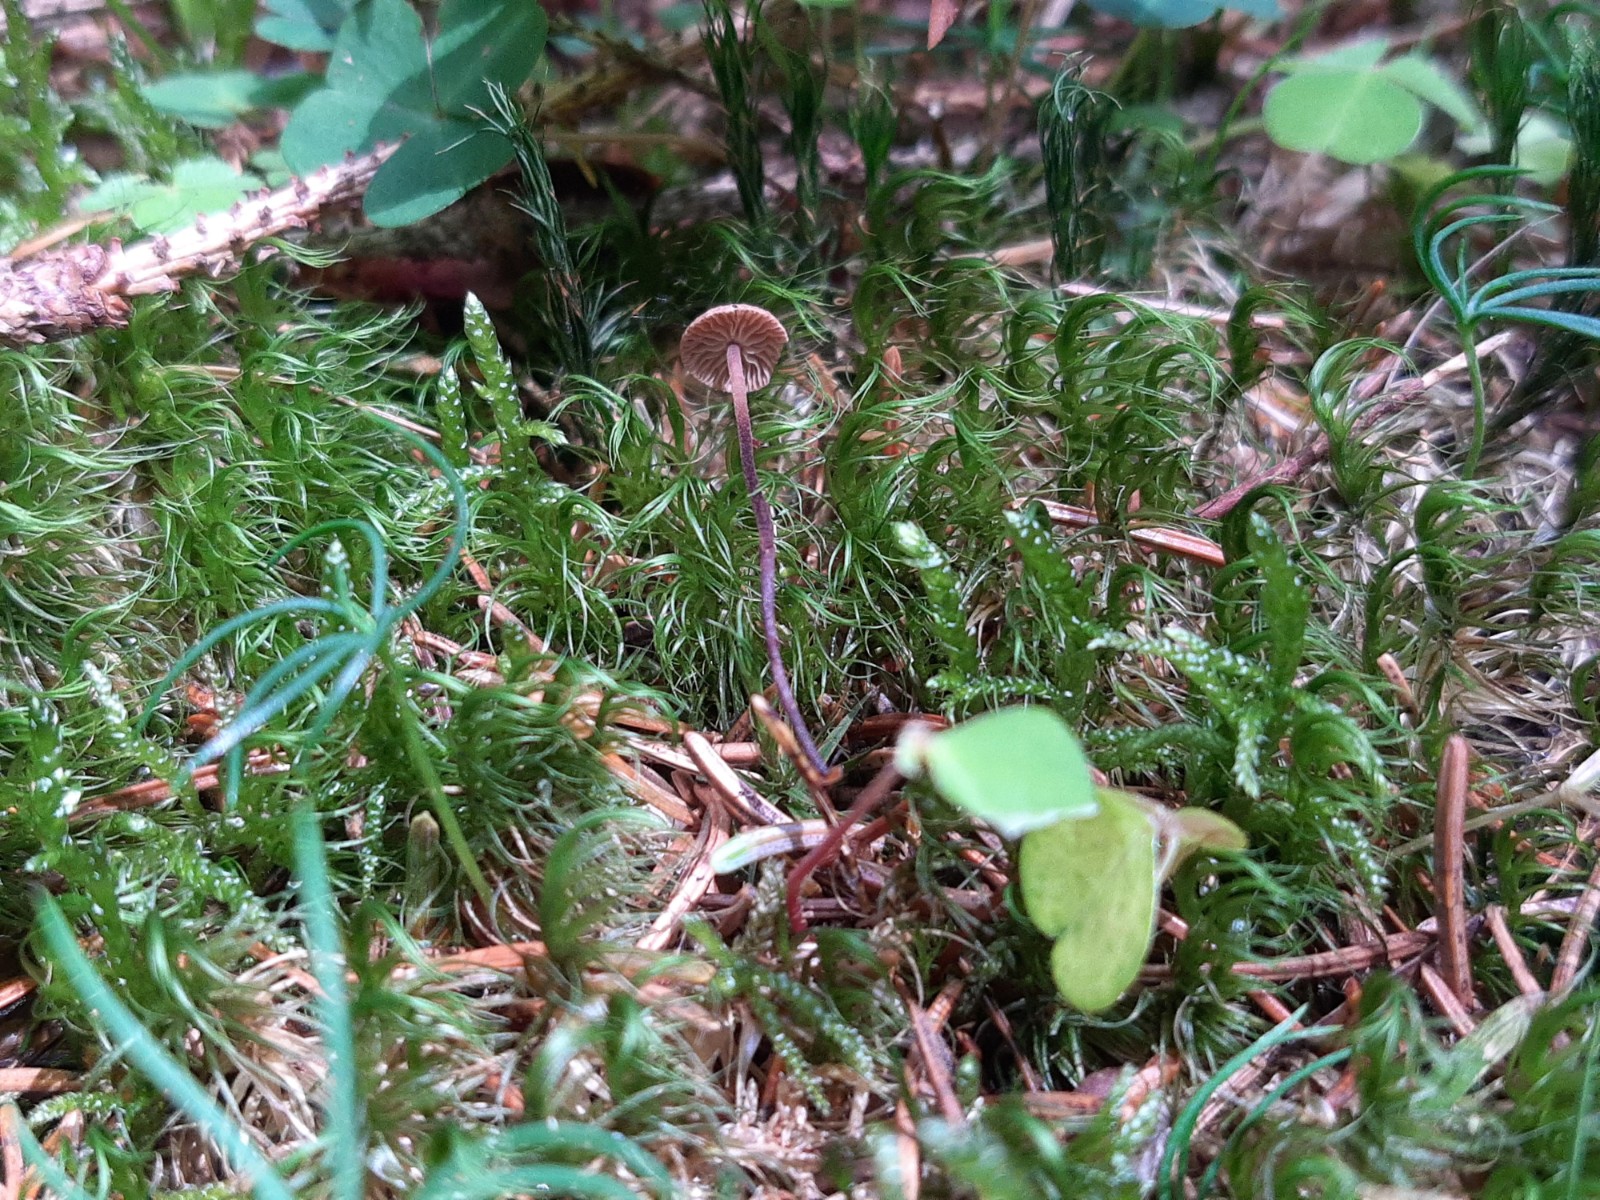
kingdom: Fungi
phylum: Basidiomycota
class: Agaricomycetes
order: Agaricales
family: Omphalotaceae
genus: Paragymnopus
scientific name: Paragymnopus perforans
